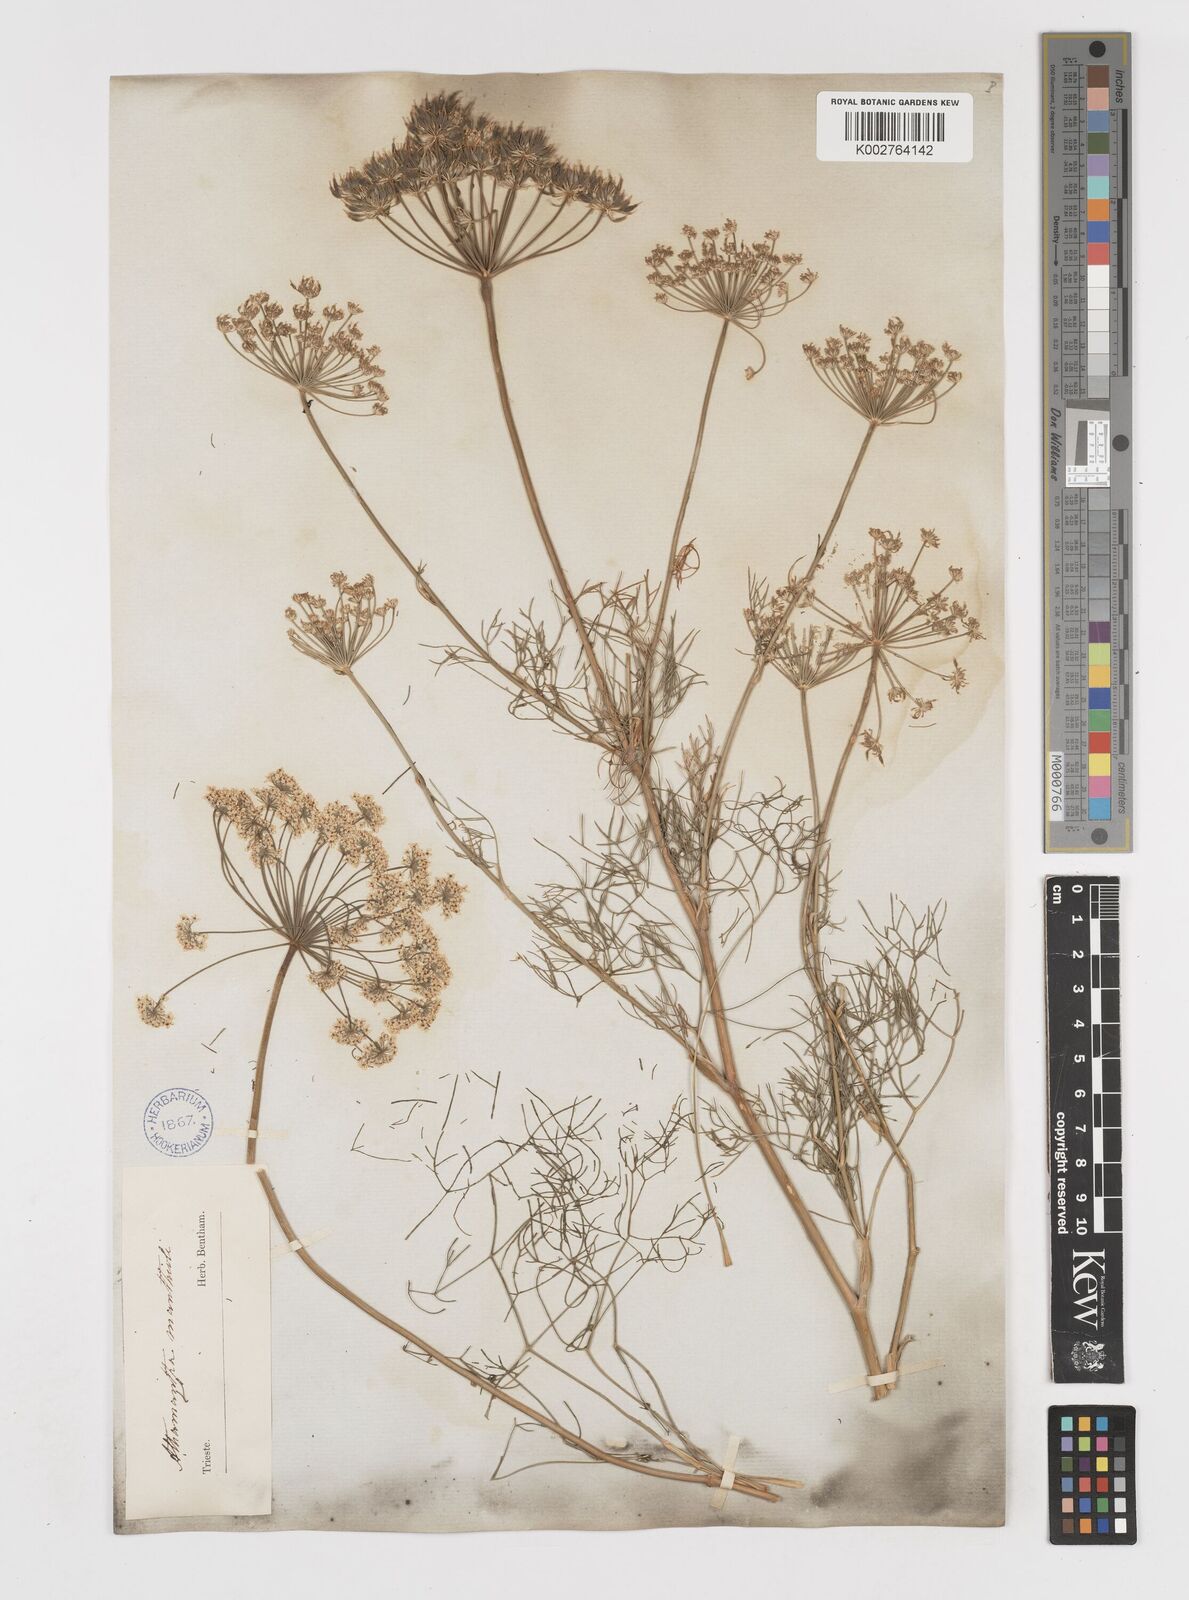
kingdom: Plantae
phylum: Tracheophyta
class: Magnoliopsida
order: Apiales
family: Apiaceae
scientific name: Apiaceae
